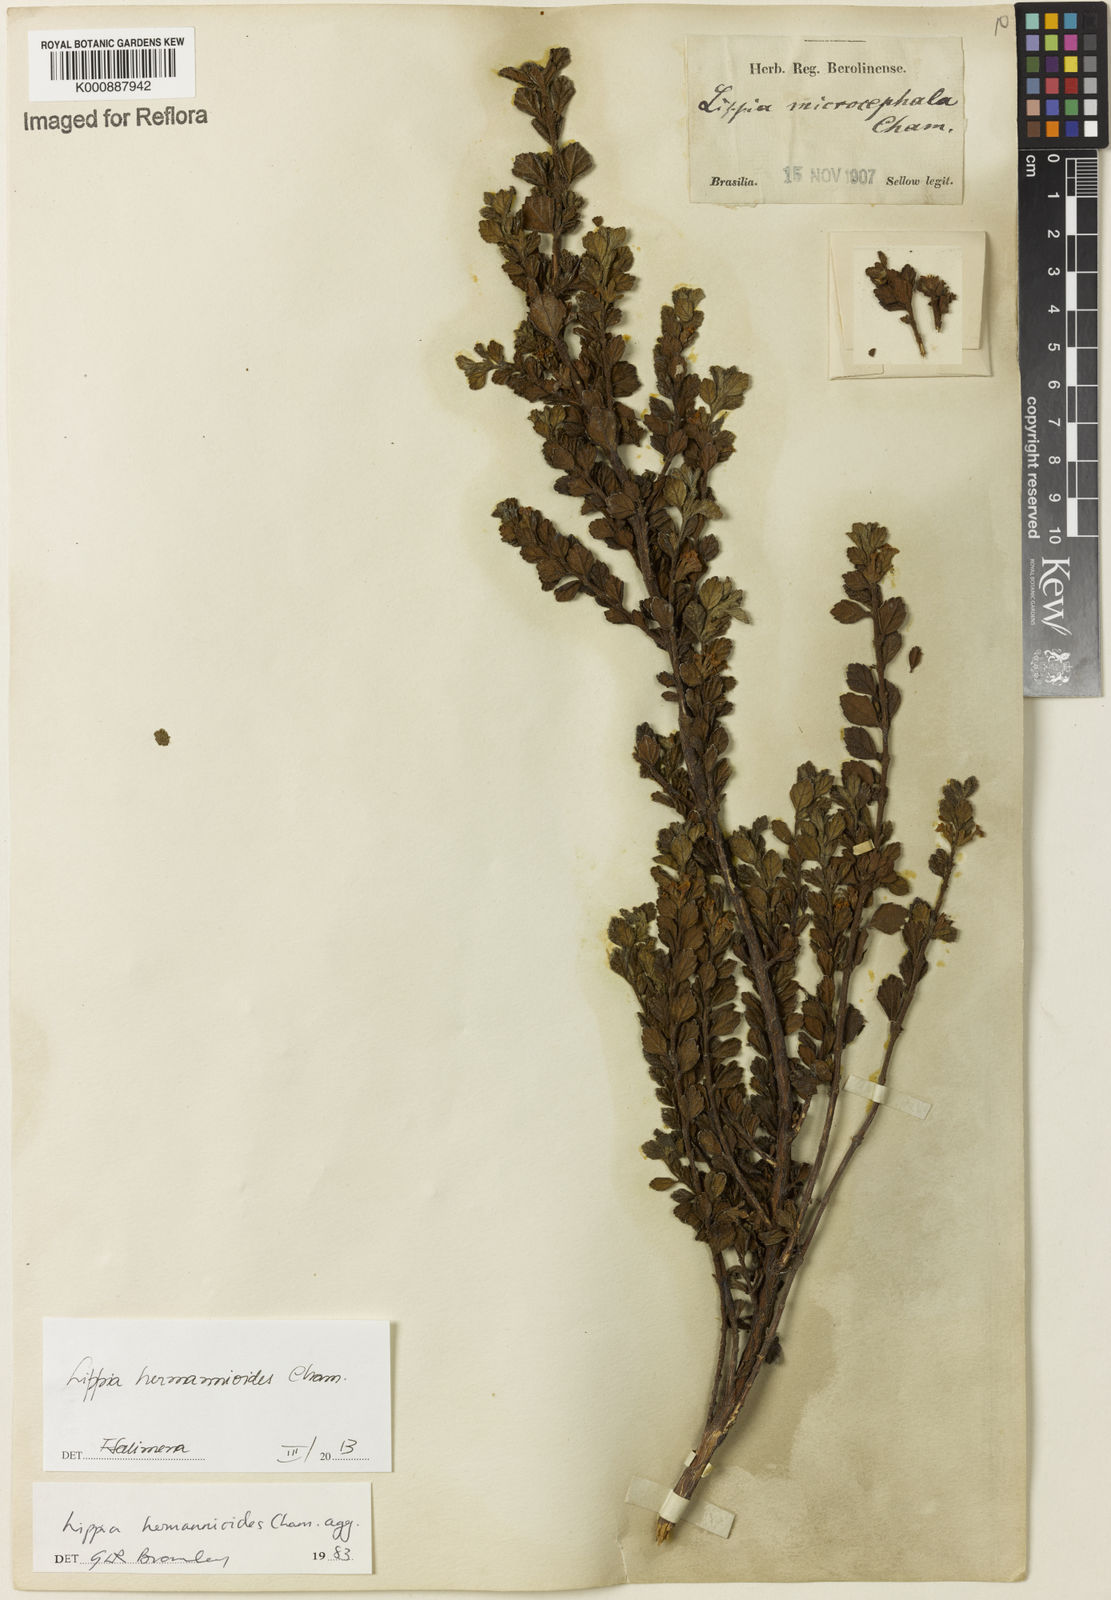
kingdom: Plantae
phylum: Tracheophyta
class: Magnoliopsida
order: Lamiales
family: Verbenaceae
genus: Lippia
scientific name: Lippia hermannioides
